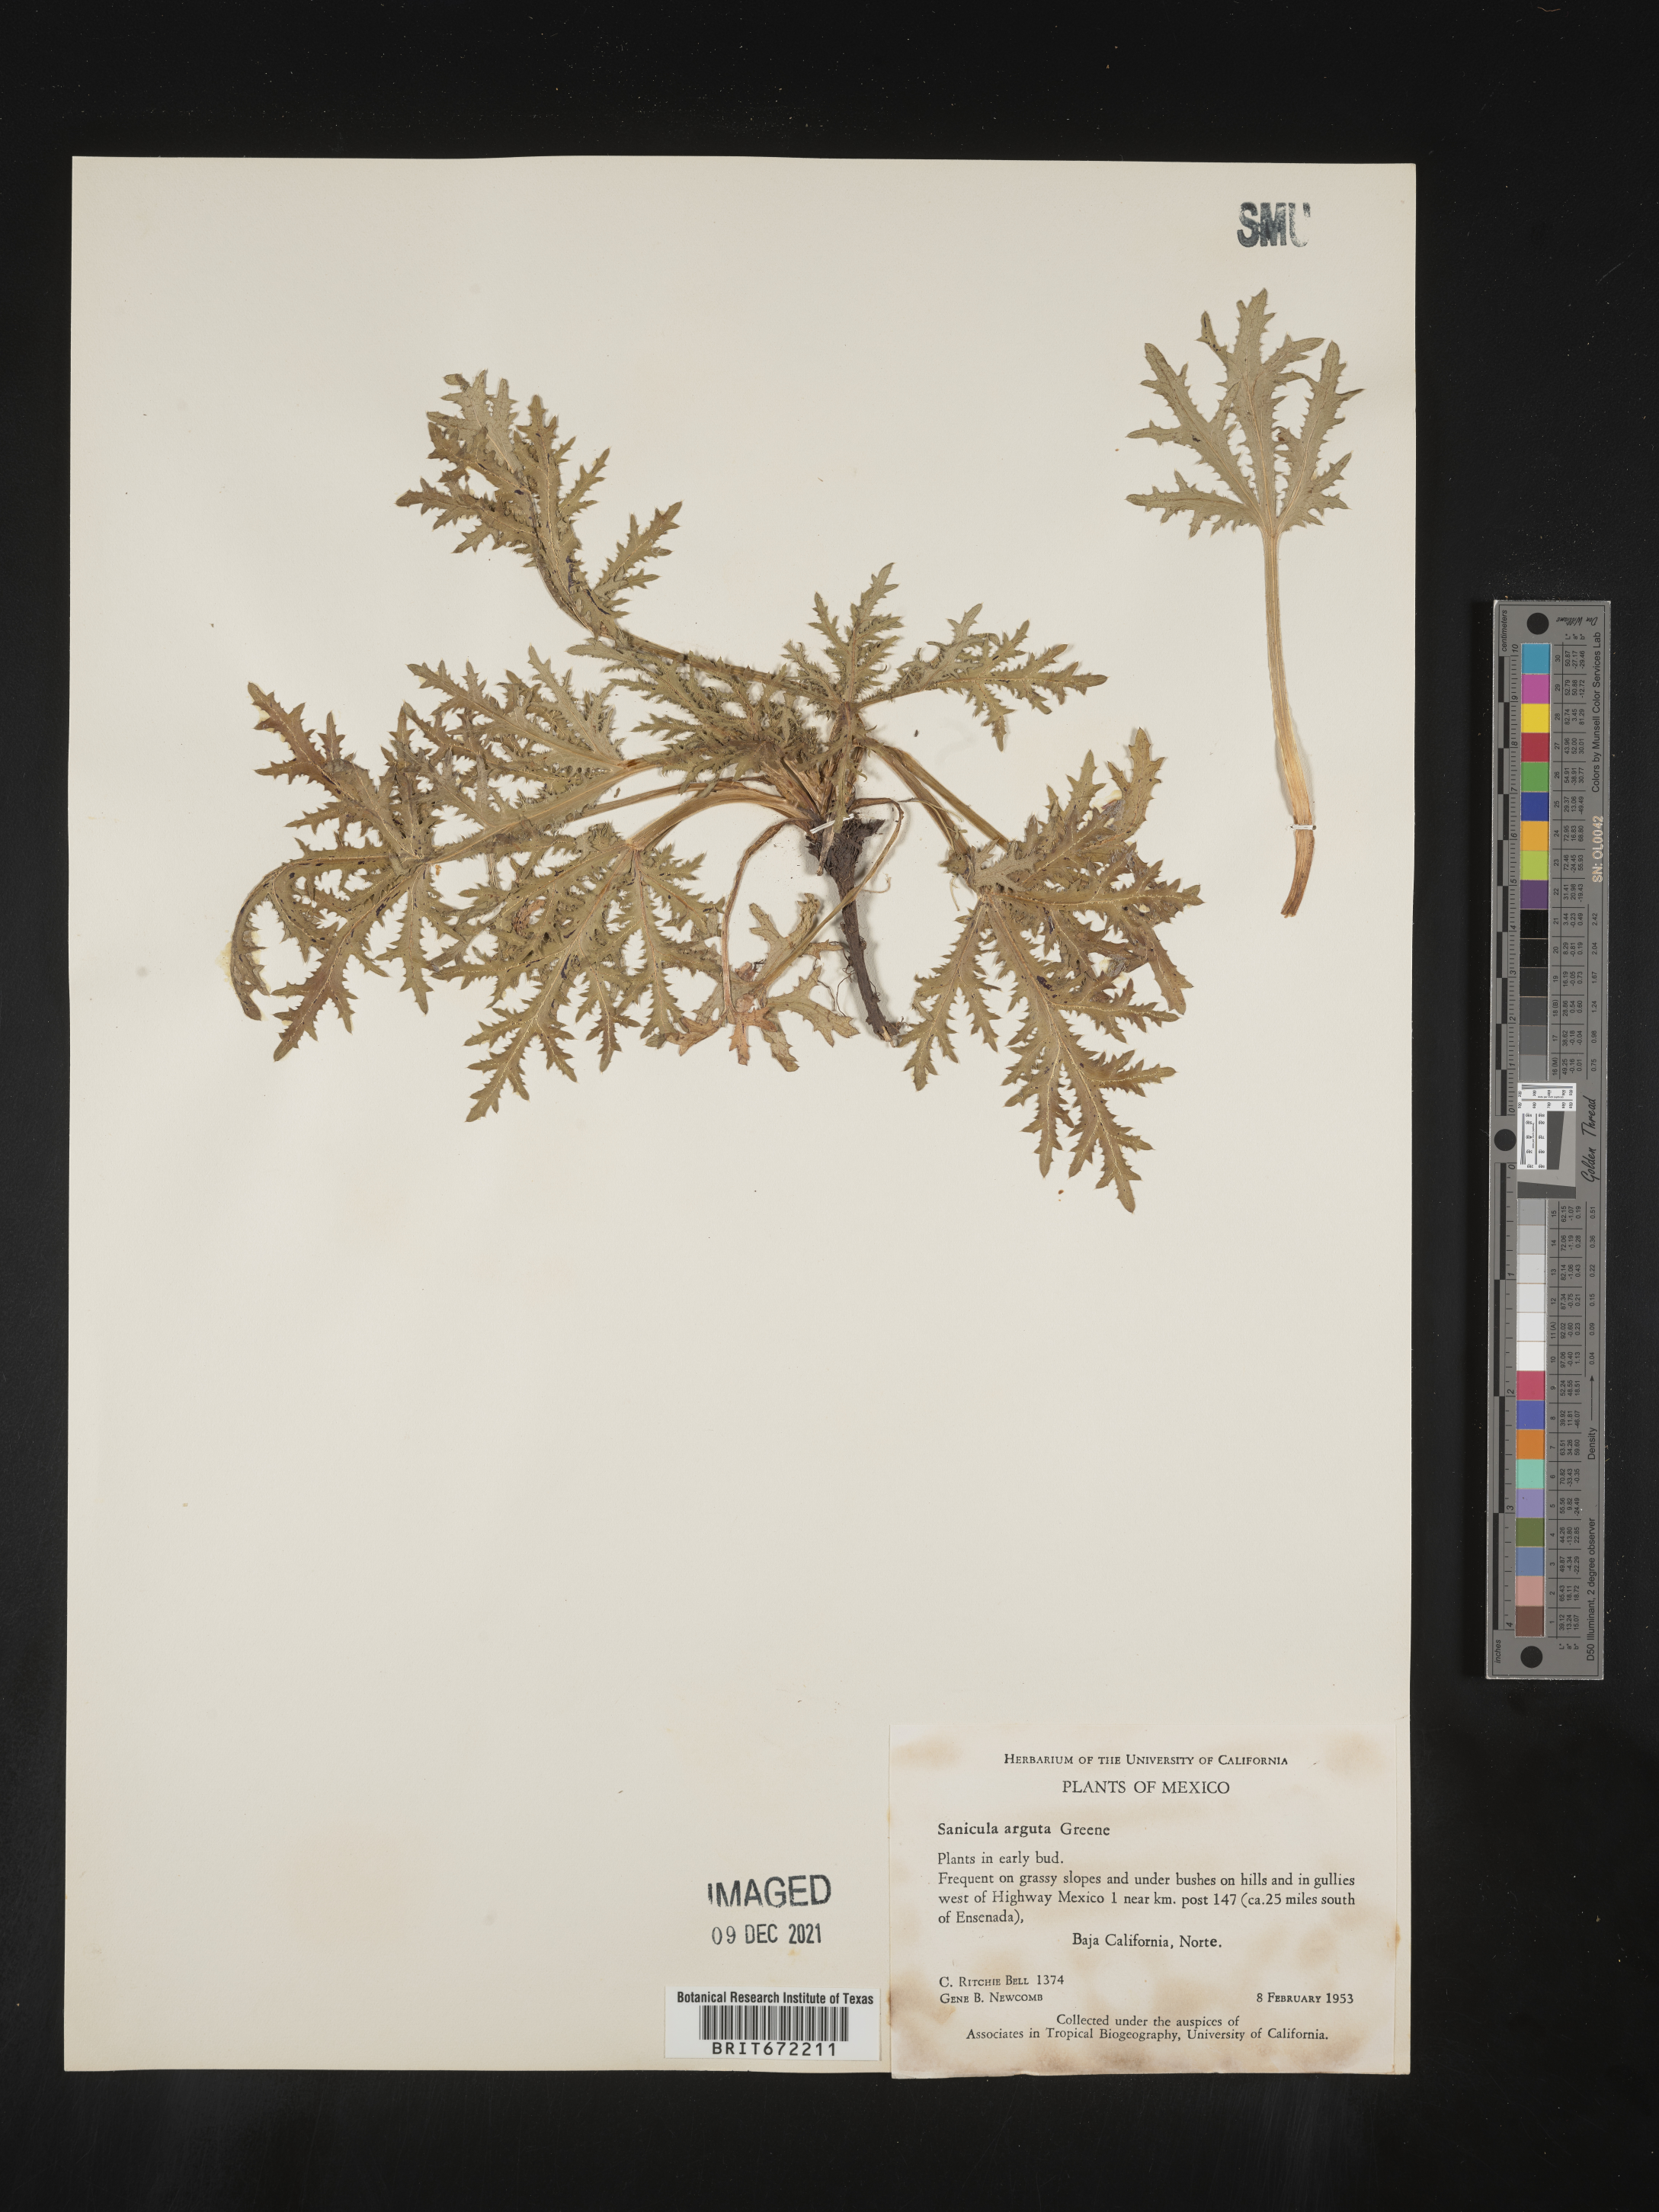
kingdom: Plantae
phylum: Tracheophyta
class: Magnoliopsida
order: Apiales
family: Apiaceae
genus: Sanicula
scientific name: Sanicula
